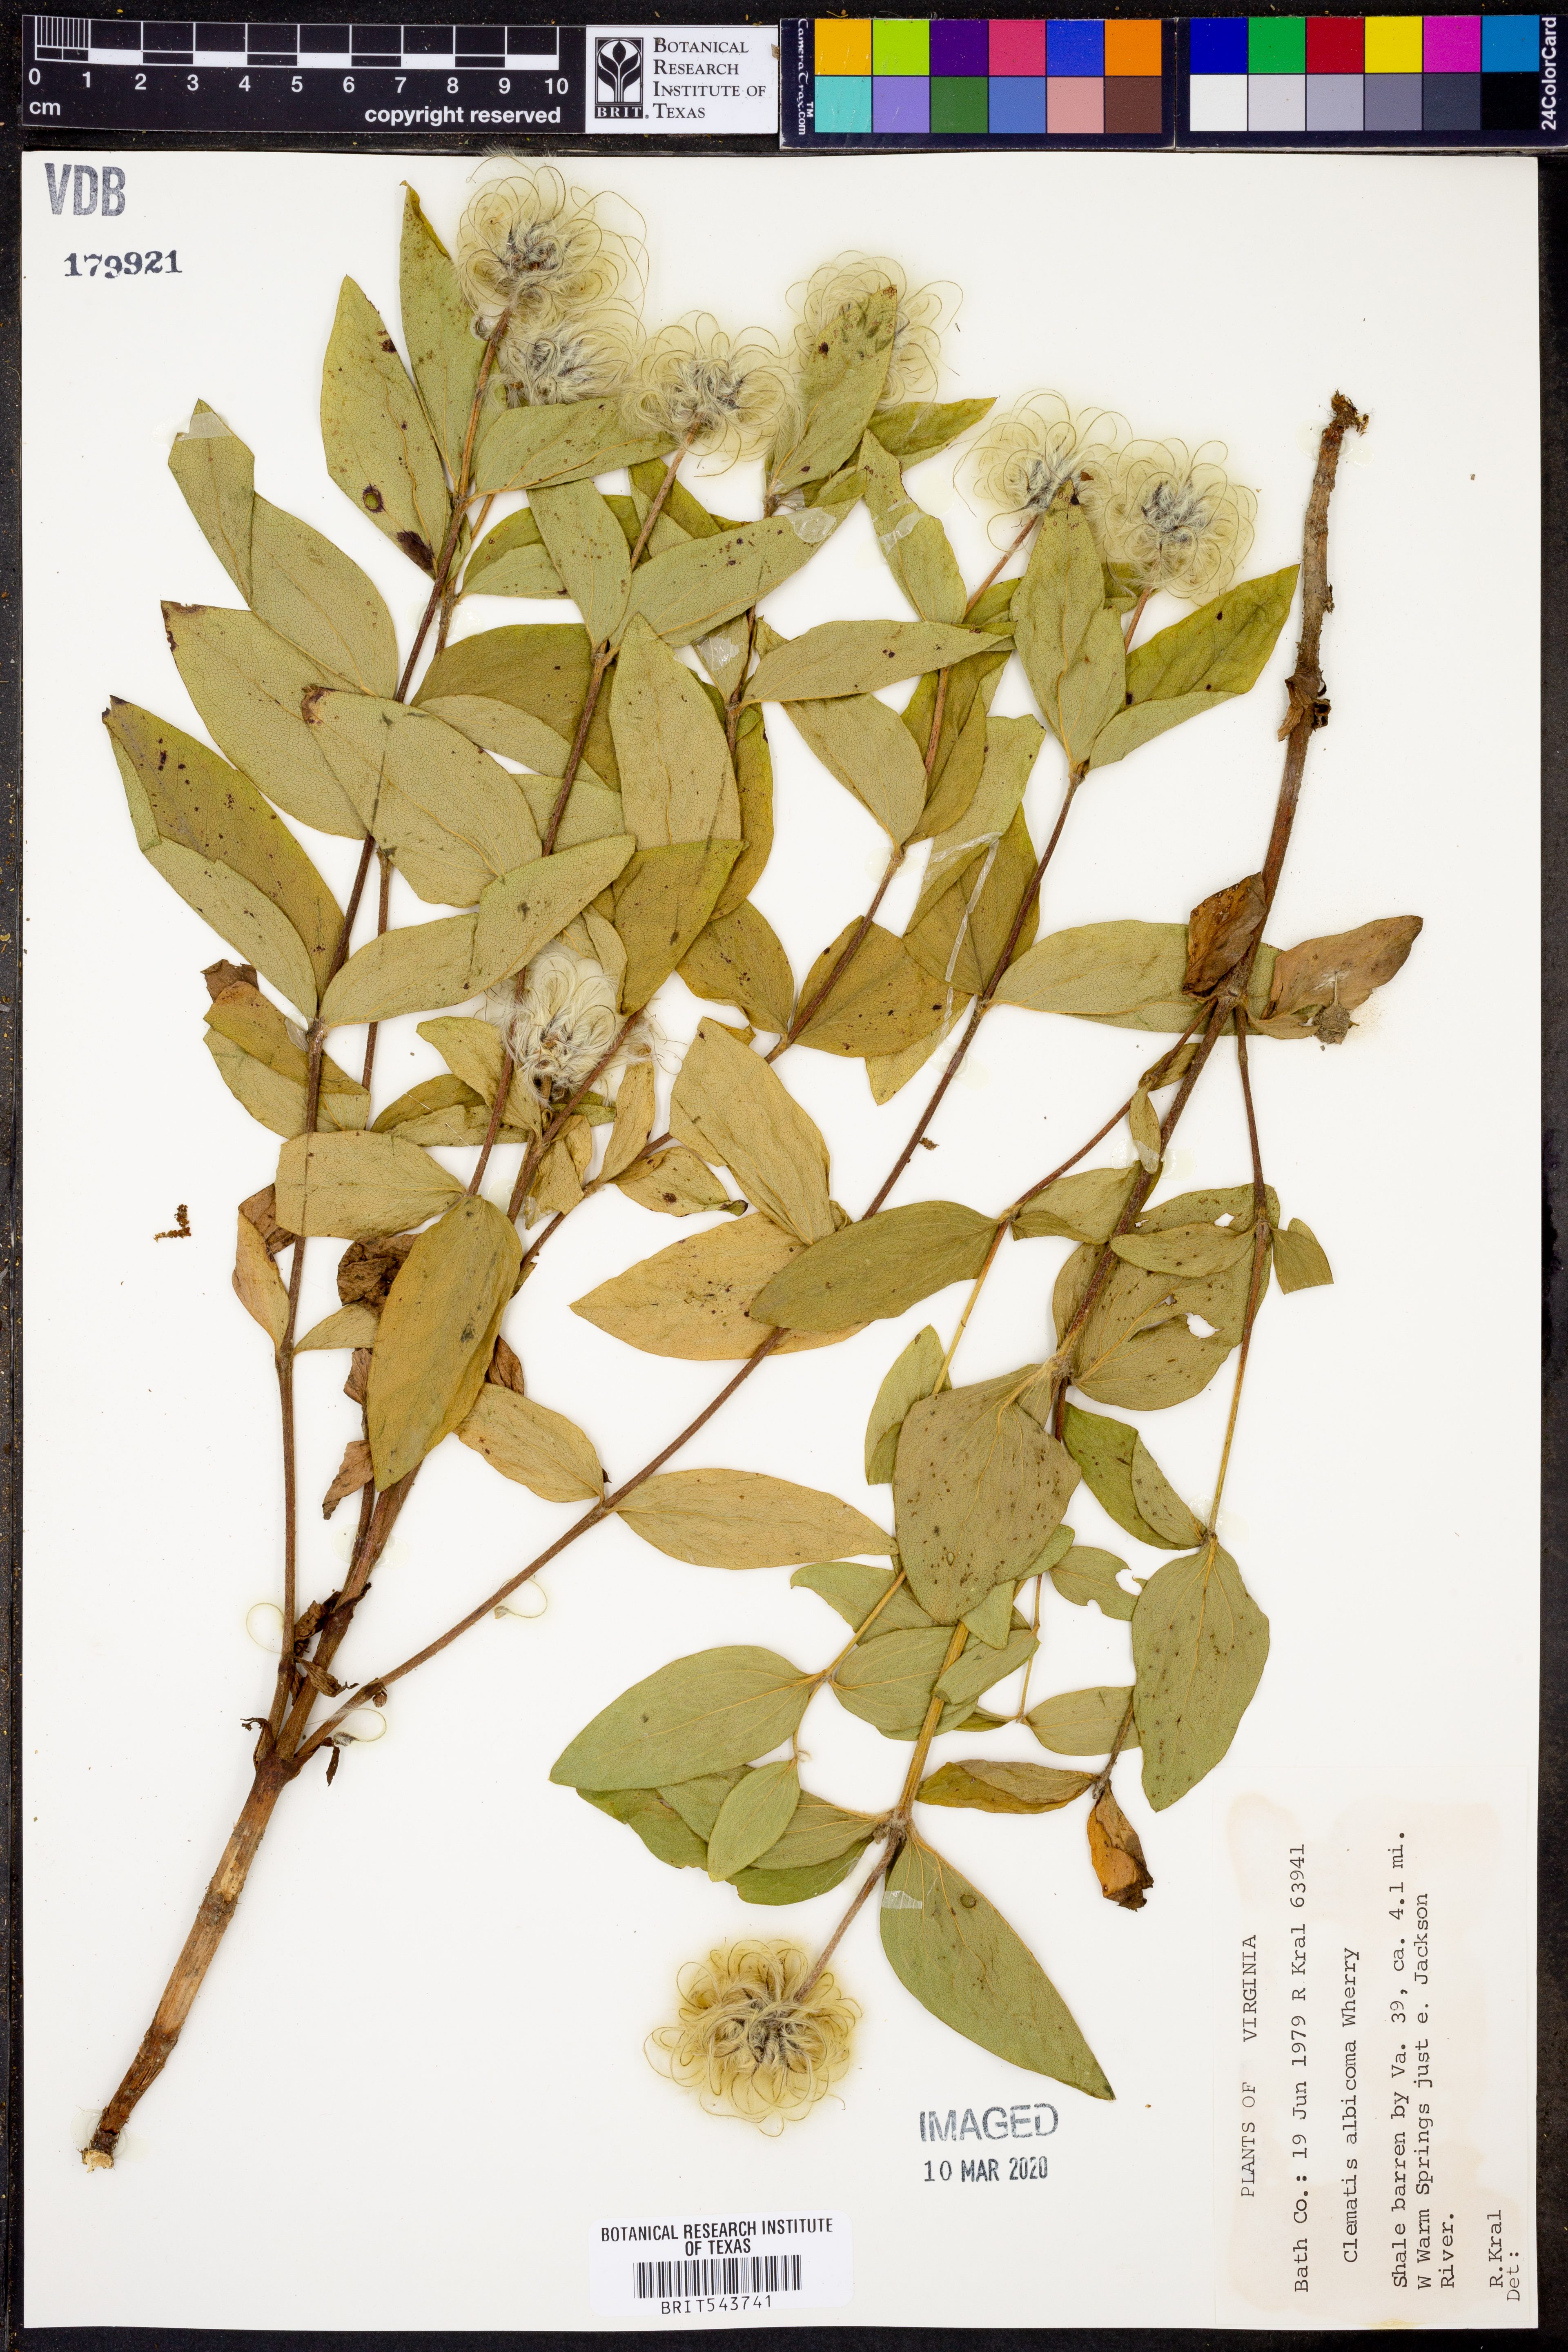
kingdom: Plantae
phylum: Tracheophyta
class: Magnoliopsida
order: Ranunculales
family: Ranunculaceae
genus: Clematis
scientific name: Clematis albicoma
